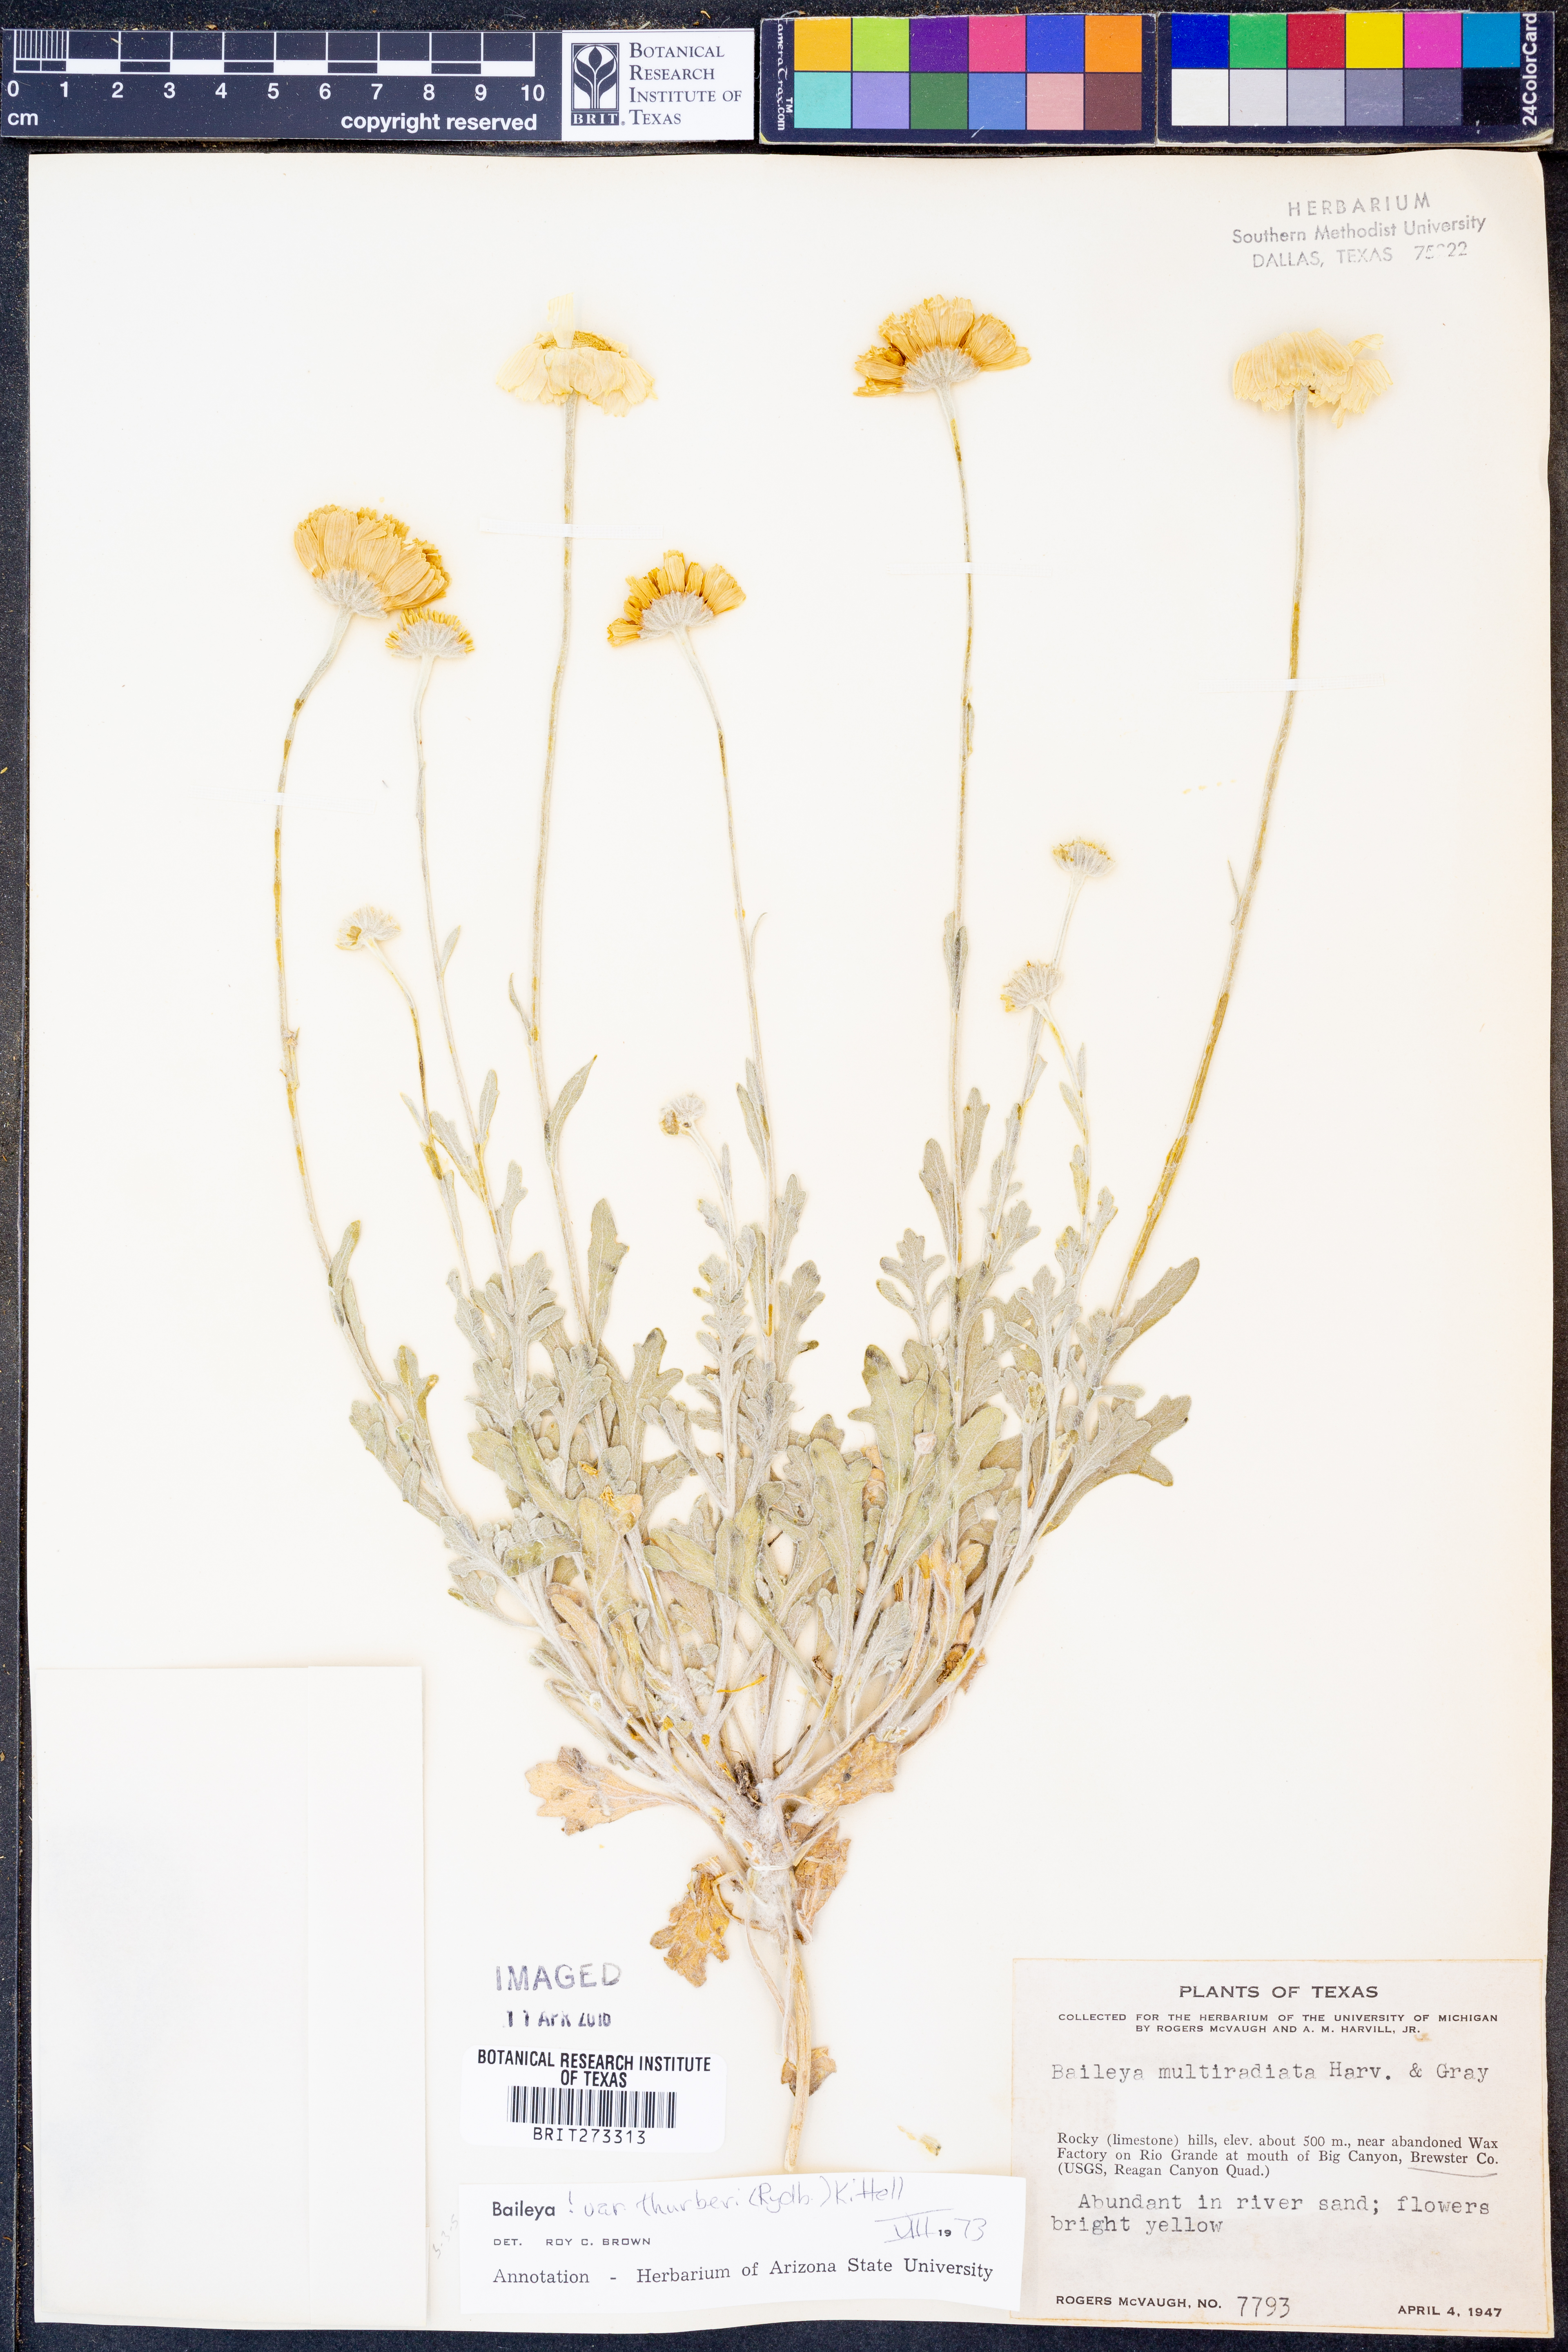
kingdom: Plantae
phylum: Tracheophyta
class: Magnoliopsida
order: Asterales
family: Asteraceae
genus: Baileya
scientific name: Baileya multiradiata
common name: Desert-marigold
